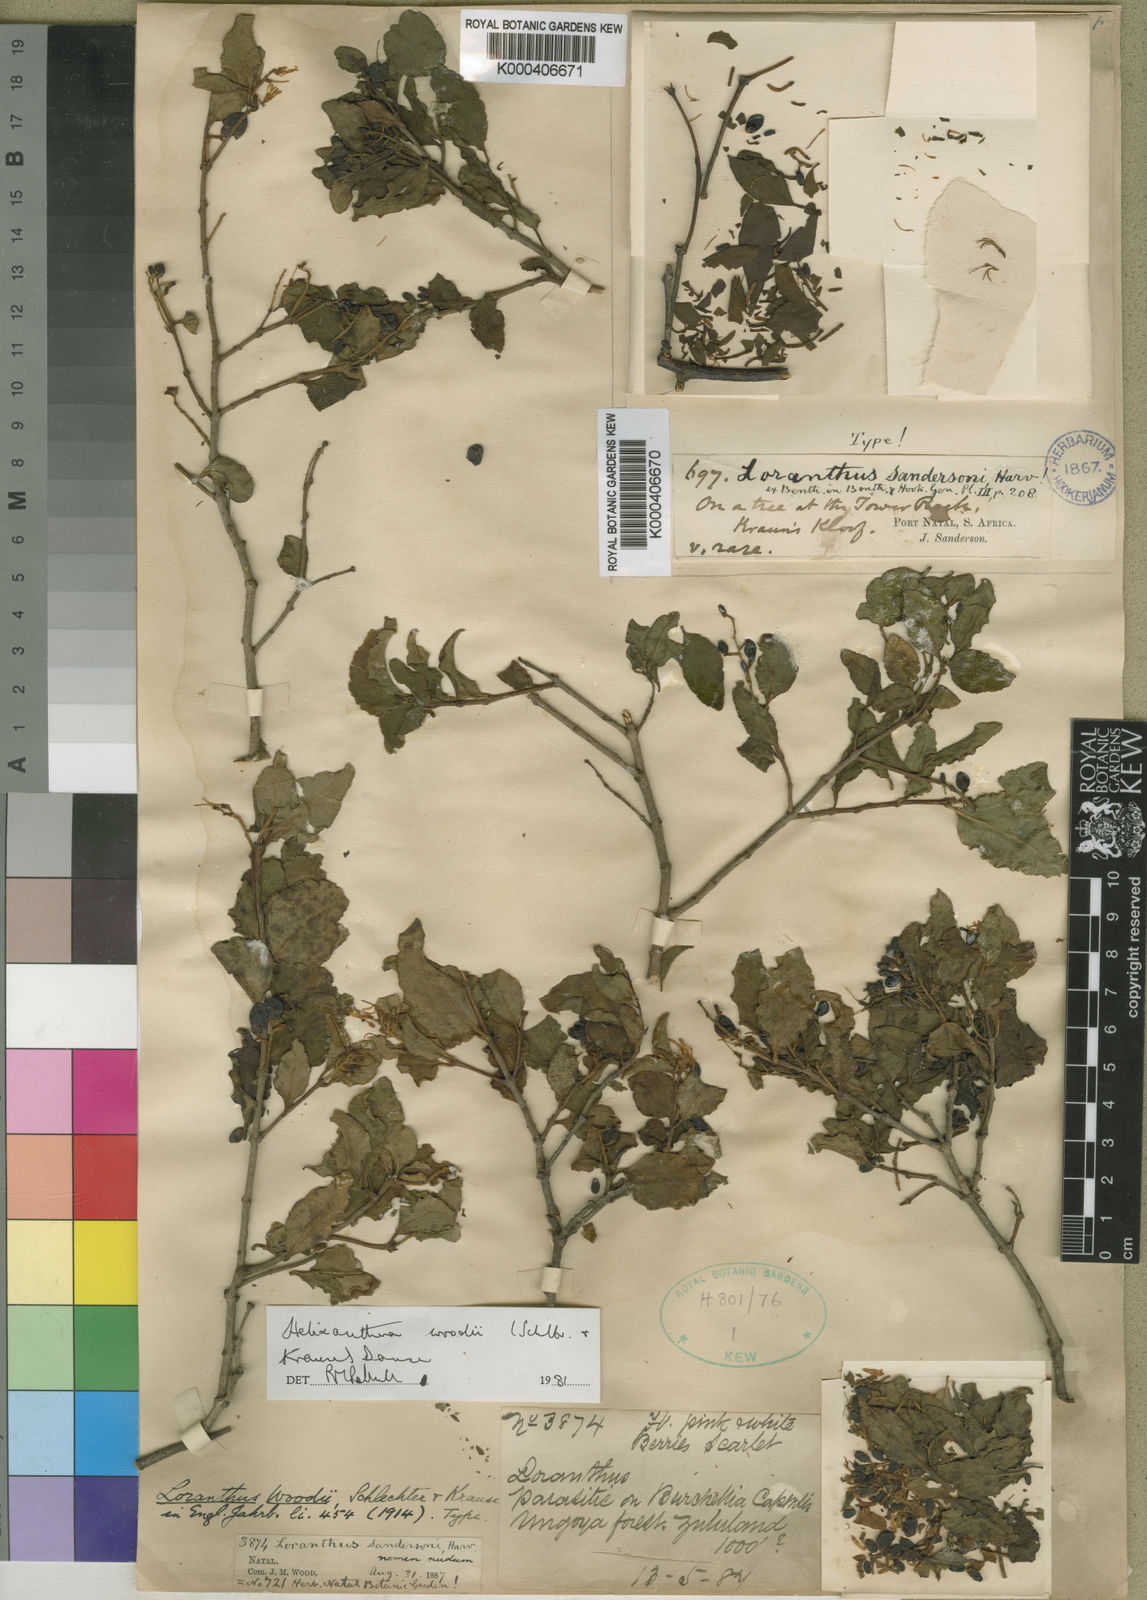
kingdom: Plantae
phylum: Tracheophyta
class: Magnoliopsida
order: Santalales
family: Loranthaceae
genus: Helixanthera
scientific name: Helixanthera woodii
